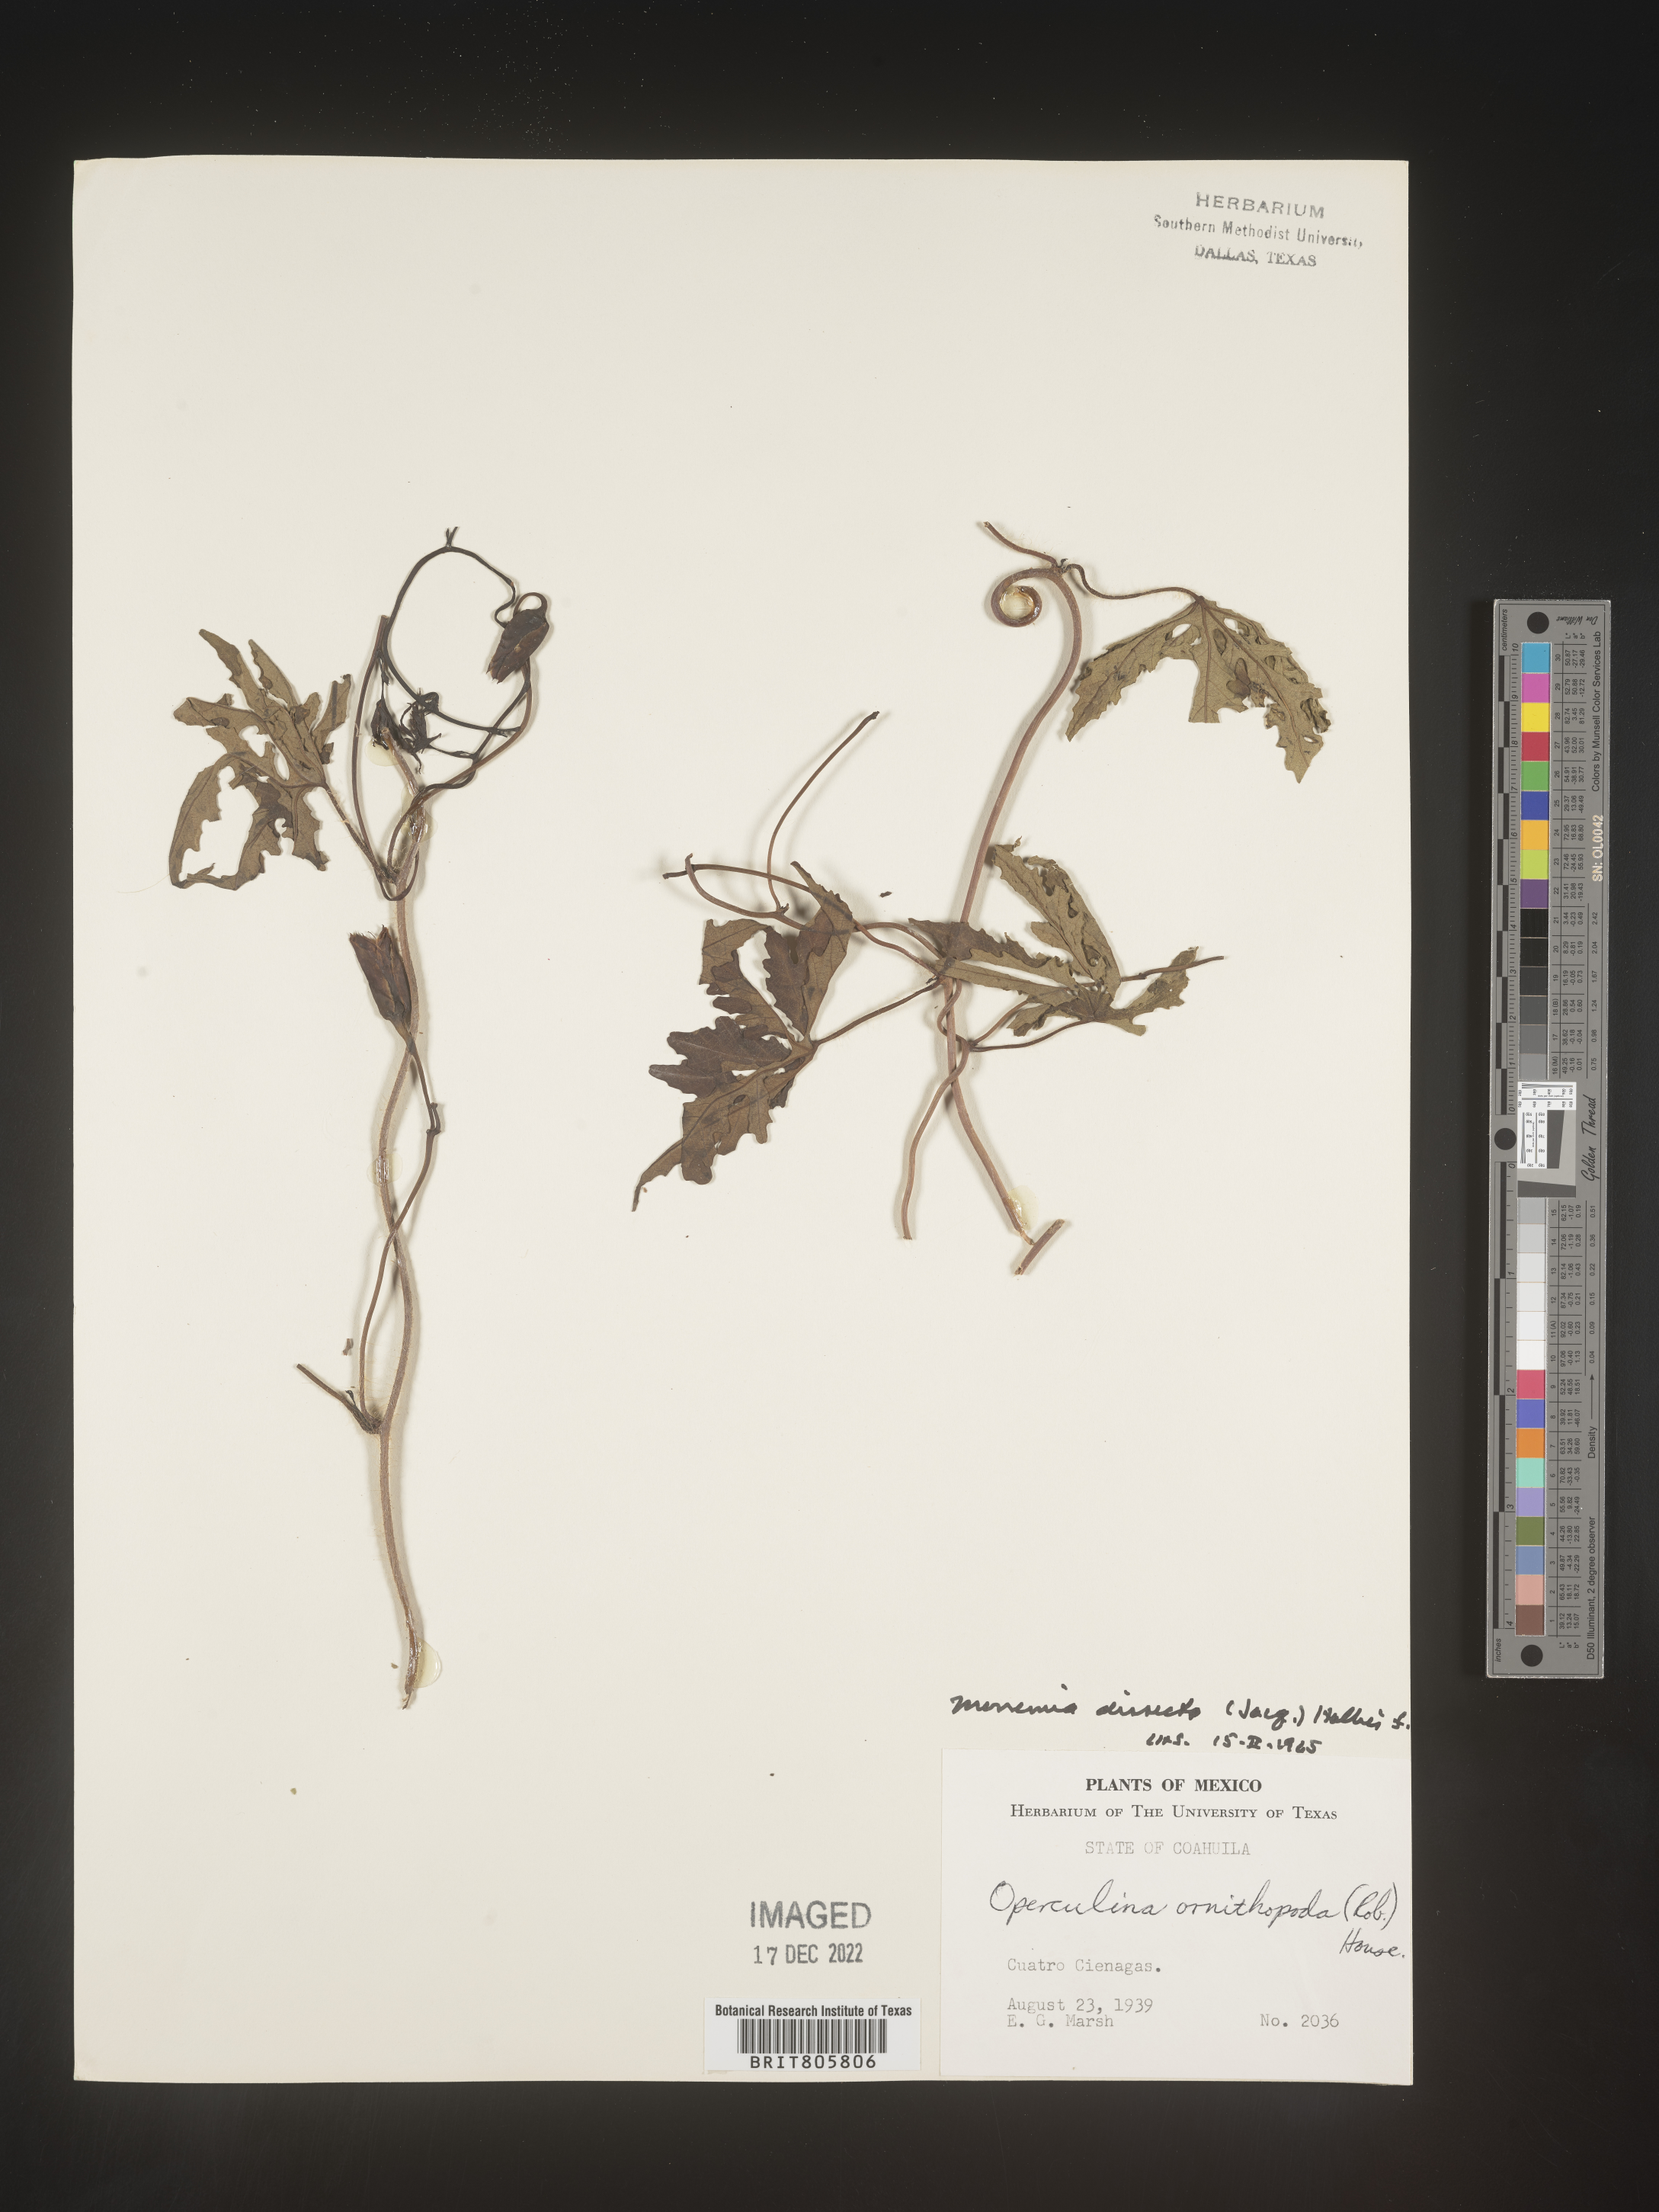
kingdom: Plantae
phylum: Tracheophyta
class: Magnoliopsida
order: Solanales
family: Convolvulaceae
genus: Merremia
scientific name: Merremia
